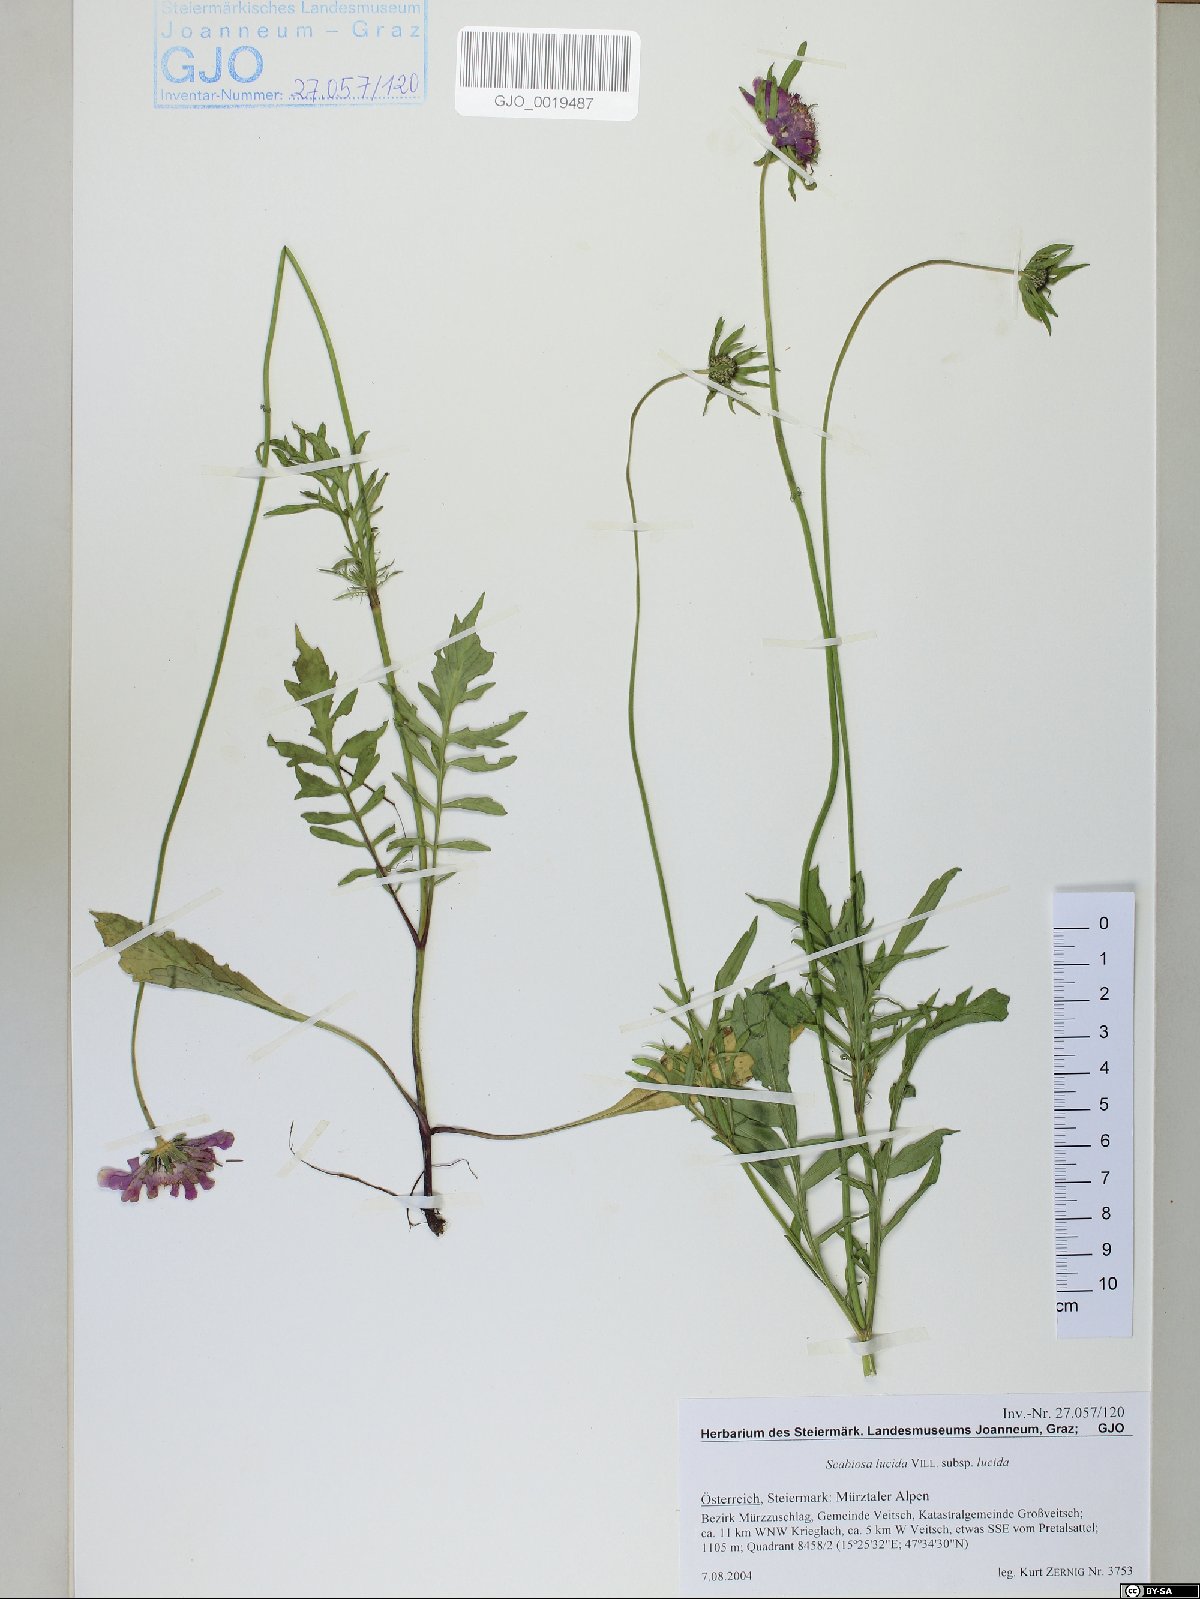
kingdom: Plantae
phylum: Tracheophyta
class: Magnoliopsida
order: Dipsacales
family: Caprifoliaceae
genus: Scabiosa
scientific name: Scabiosa lucida
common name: Shining scabious
